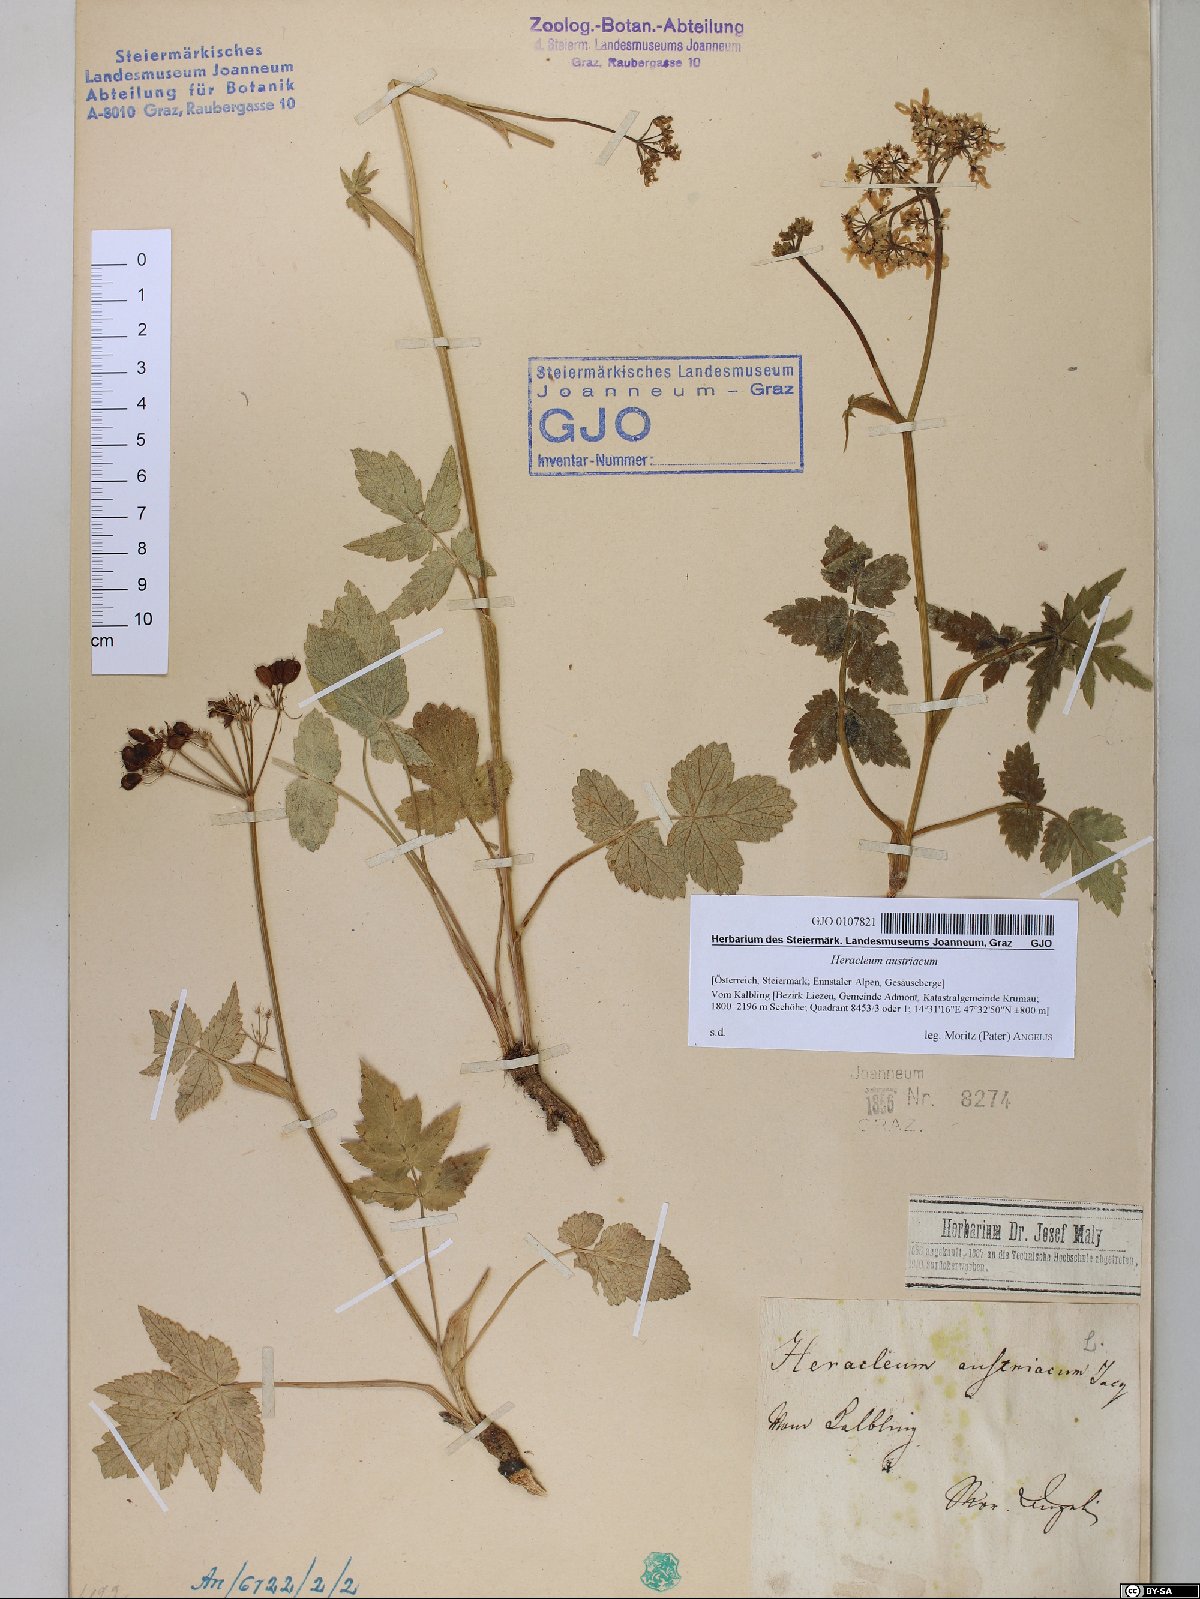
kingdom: Plantae
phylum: Tracheophyta
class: Magnoliopsida
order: Apiales
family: Apiaceae
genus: Heracleum
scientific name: Heracleum austriacum
